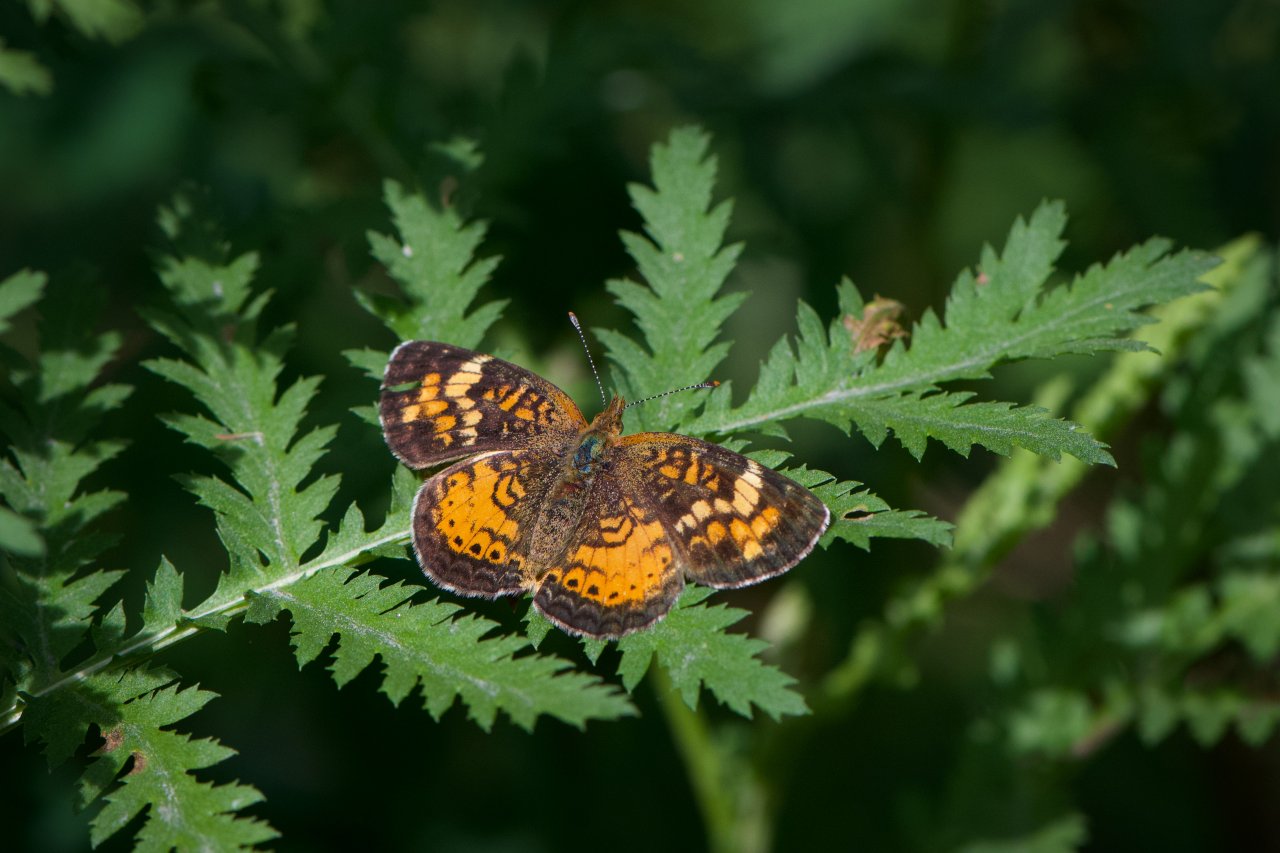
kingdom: Animalia
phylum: Arthropoda
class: Insecta
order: Lepidoptera
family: Nymphalidae
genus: Phyciodes
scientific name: Phyciodes tharos
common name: Northern Crescent
